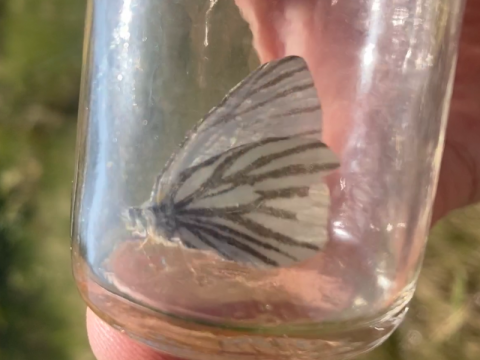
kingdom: Animalia
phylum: Arthropoda
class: Insecta
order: Lepidoptera
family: Pieridae
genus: Pieris
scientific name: Pieris oleracea
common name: Mustard White
